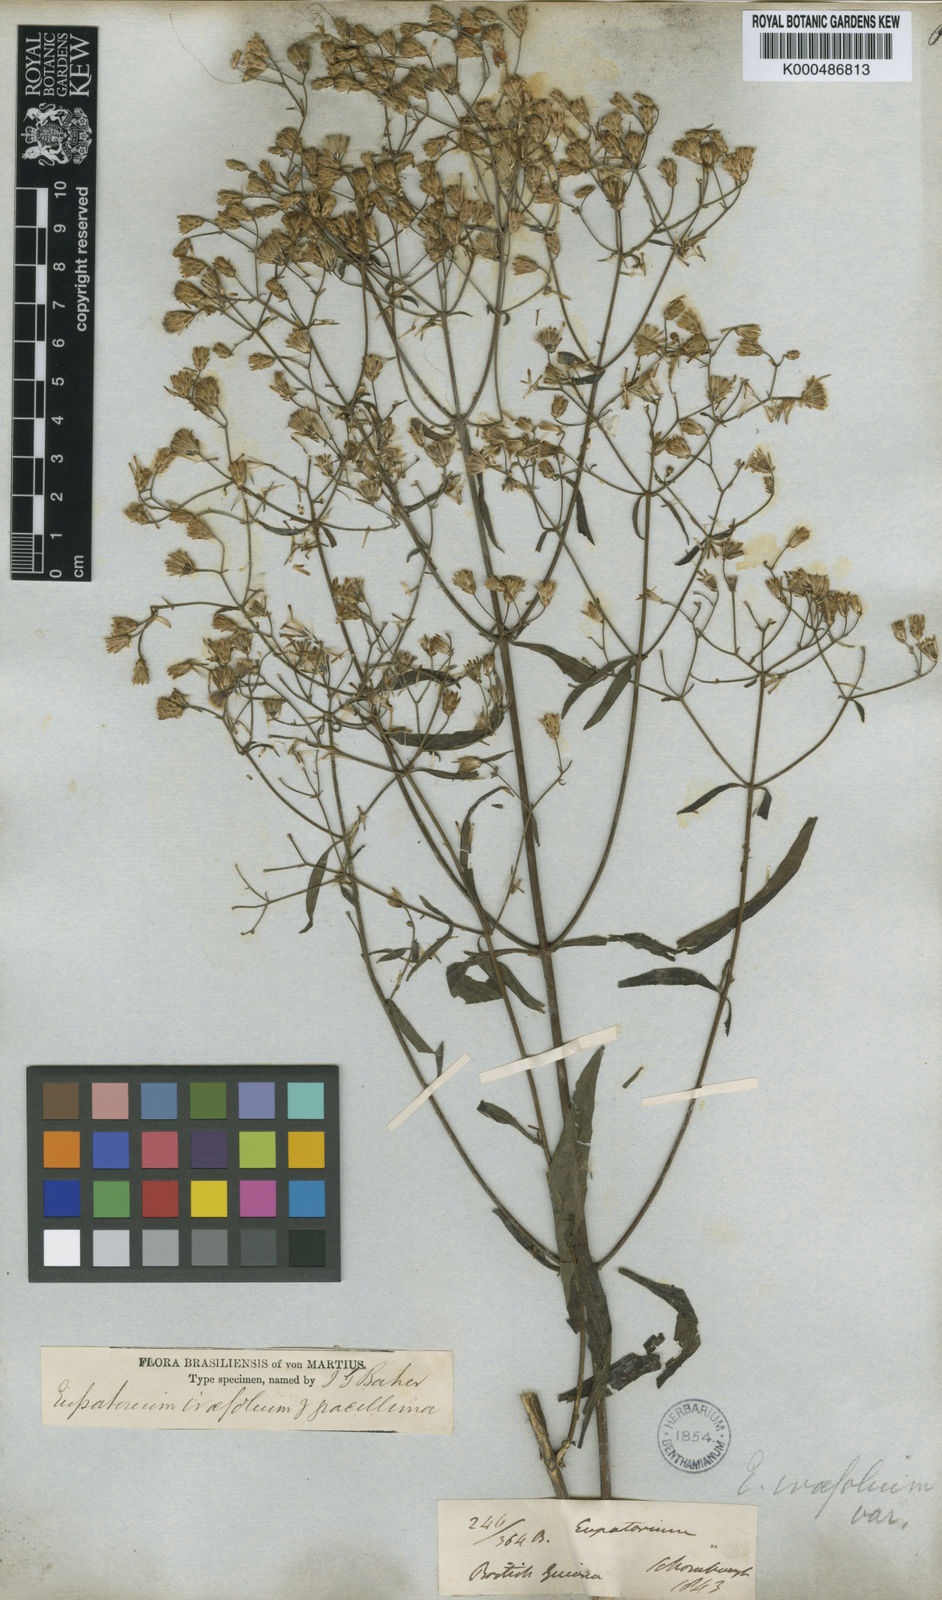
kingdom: Plantae
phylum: Tracheophyta
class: Magnoliopsida
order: Asterales
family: Asteraceae
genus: Chromolaena
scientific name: Chromolaena ivifolia
